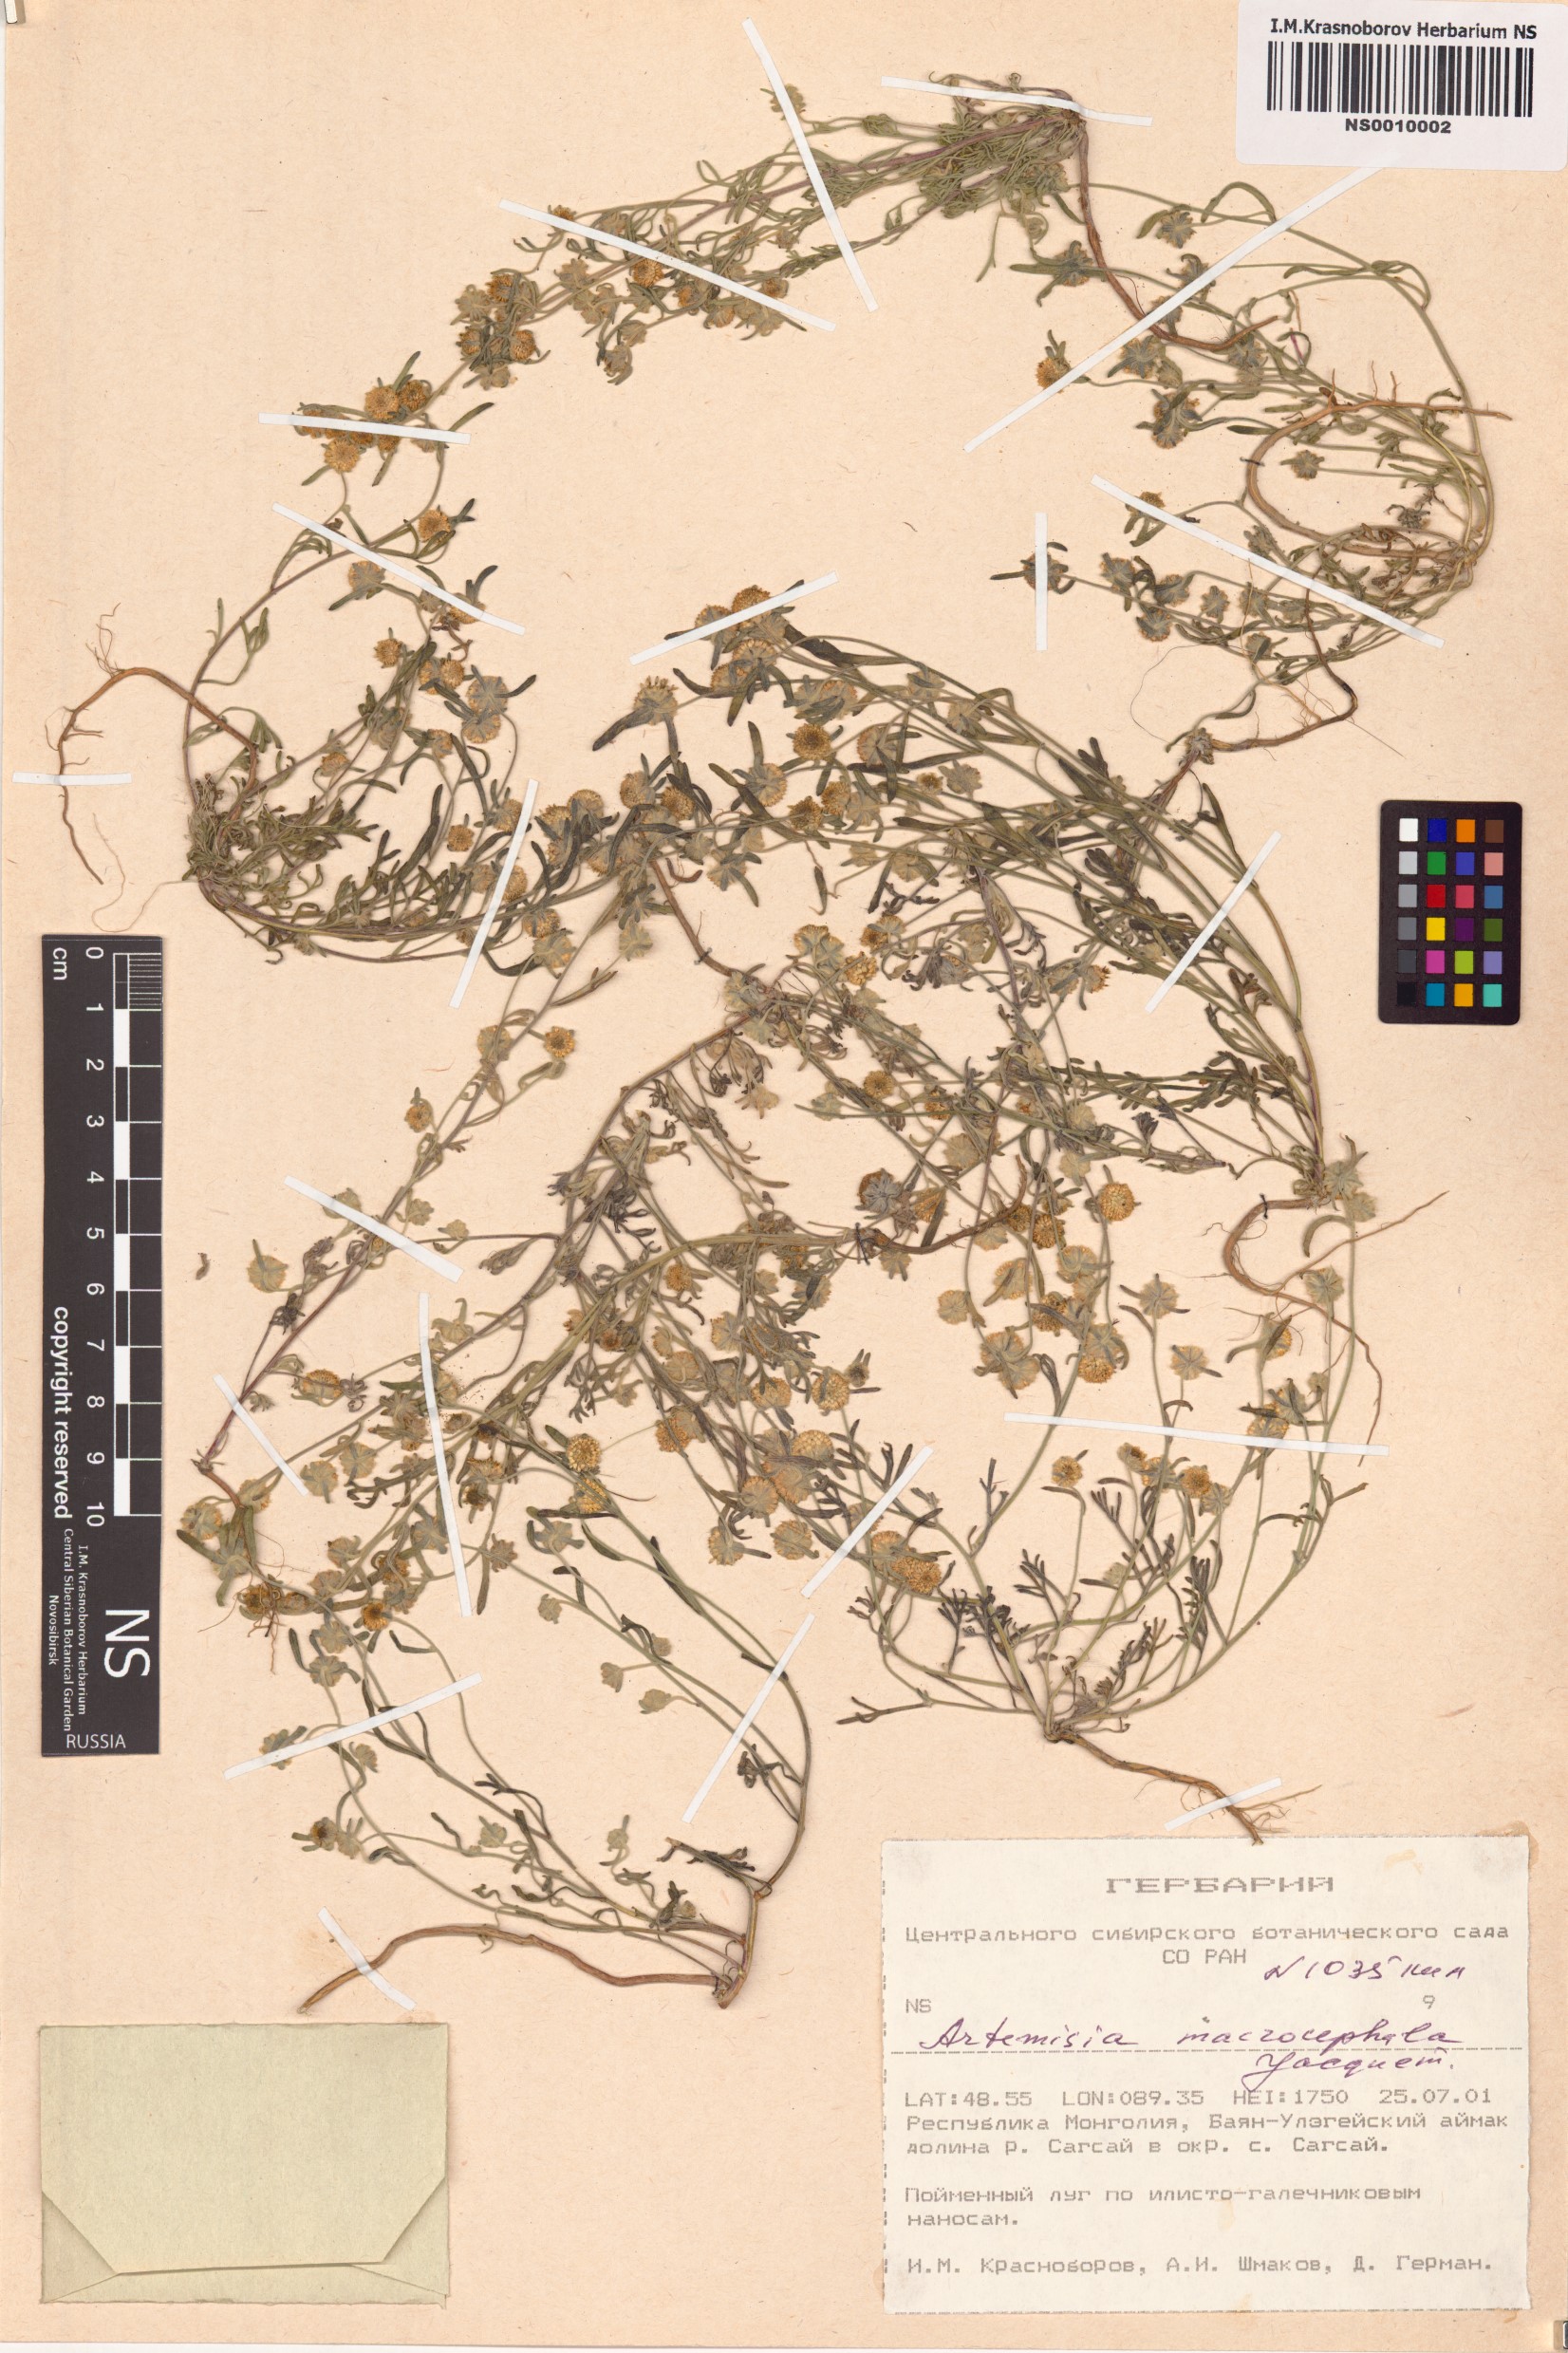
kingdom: Plantae
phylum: Tracheophyta
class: Magnoliopsida
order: Asterales
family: Asteraceae
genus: Artemisia
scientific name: Artemisia macrocephala
